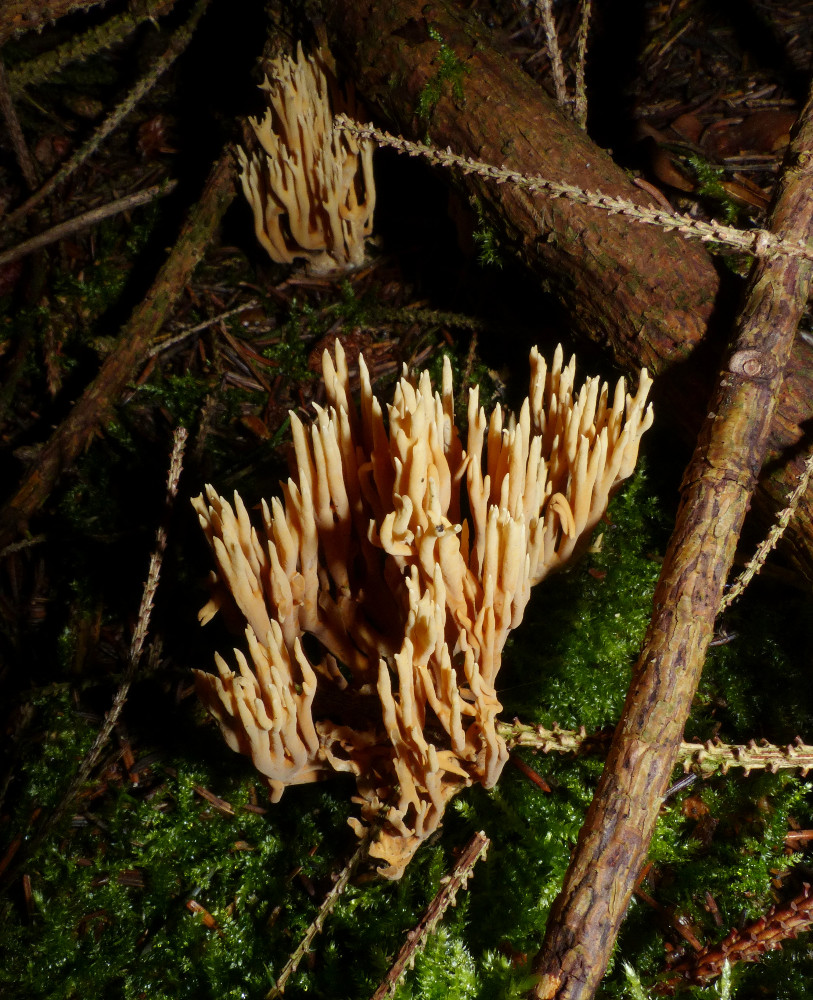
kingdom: Fungi
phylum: Basidiomycota
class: Agaricomycetes
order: Gomphales
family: Gomphaceae
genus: Phaeoclavulina
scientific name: Phaeoclavulina eumorpha
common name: gran-koralsvamp
